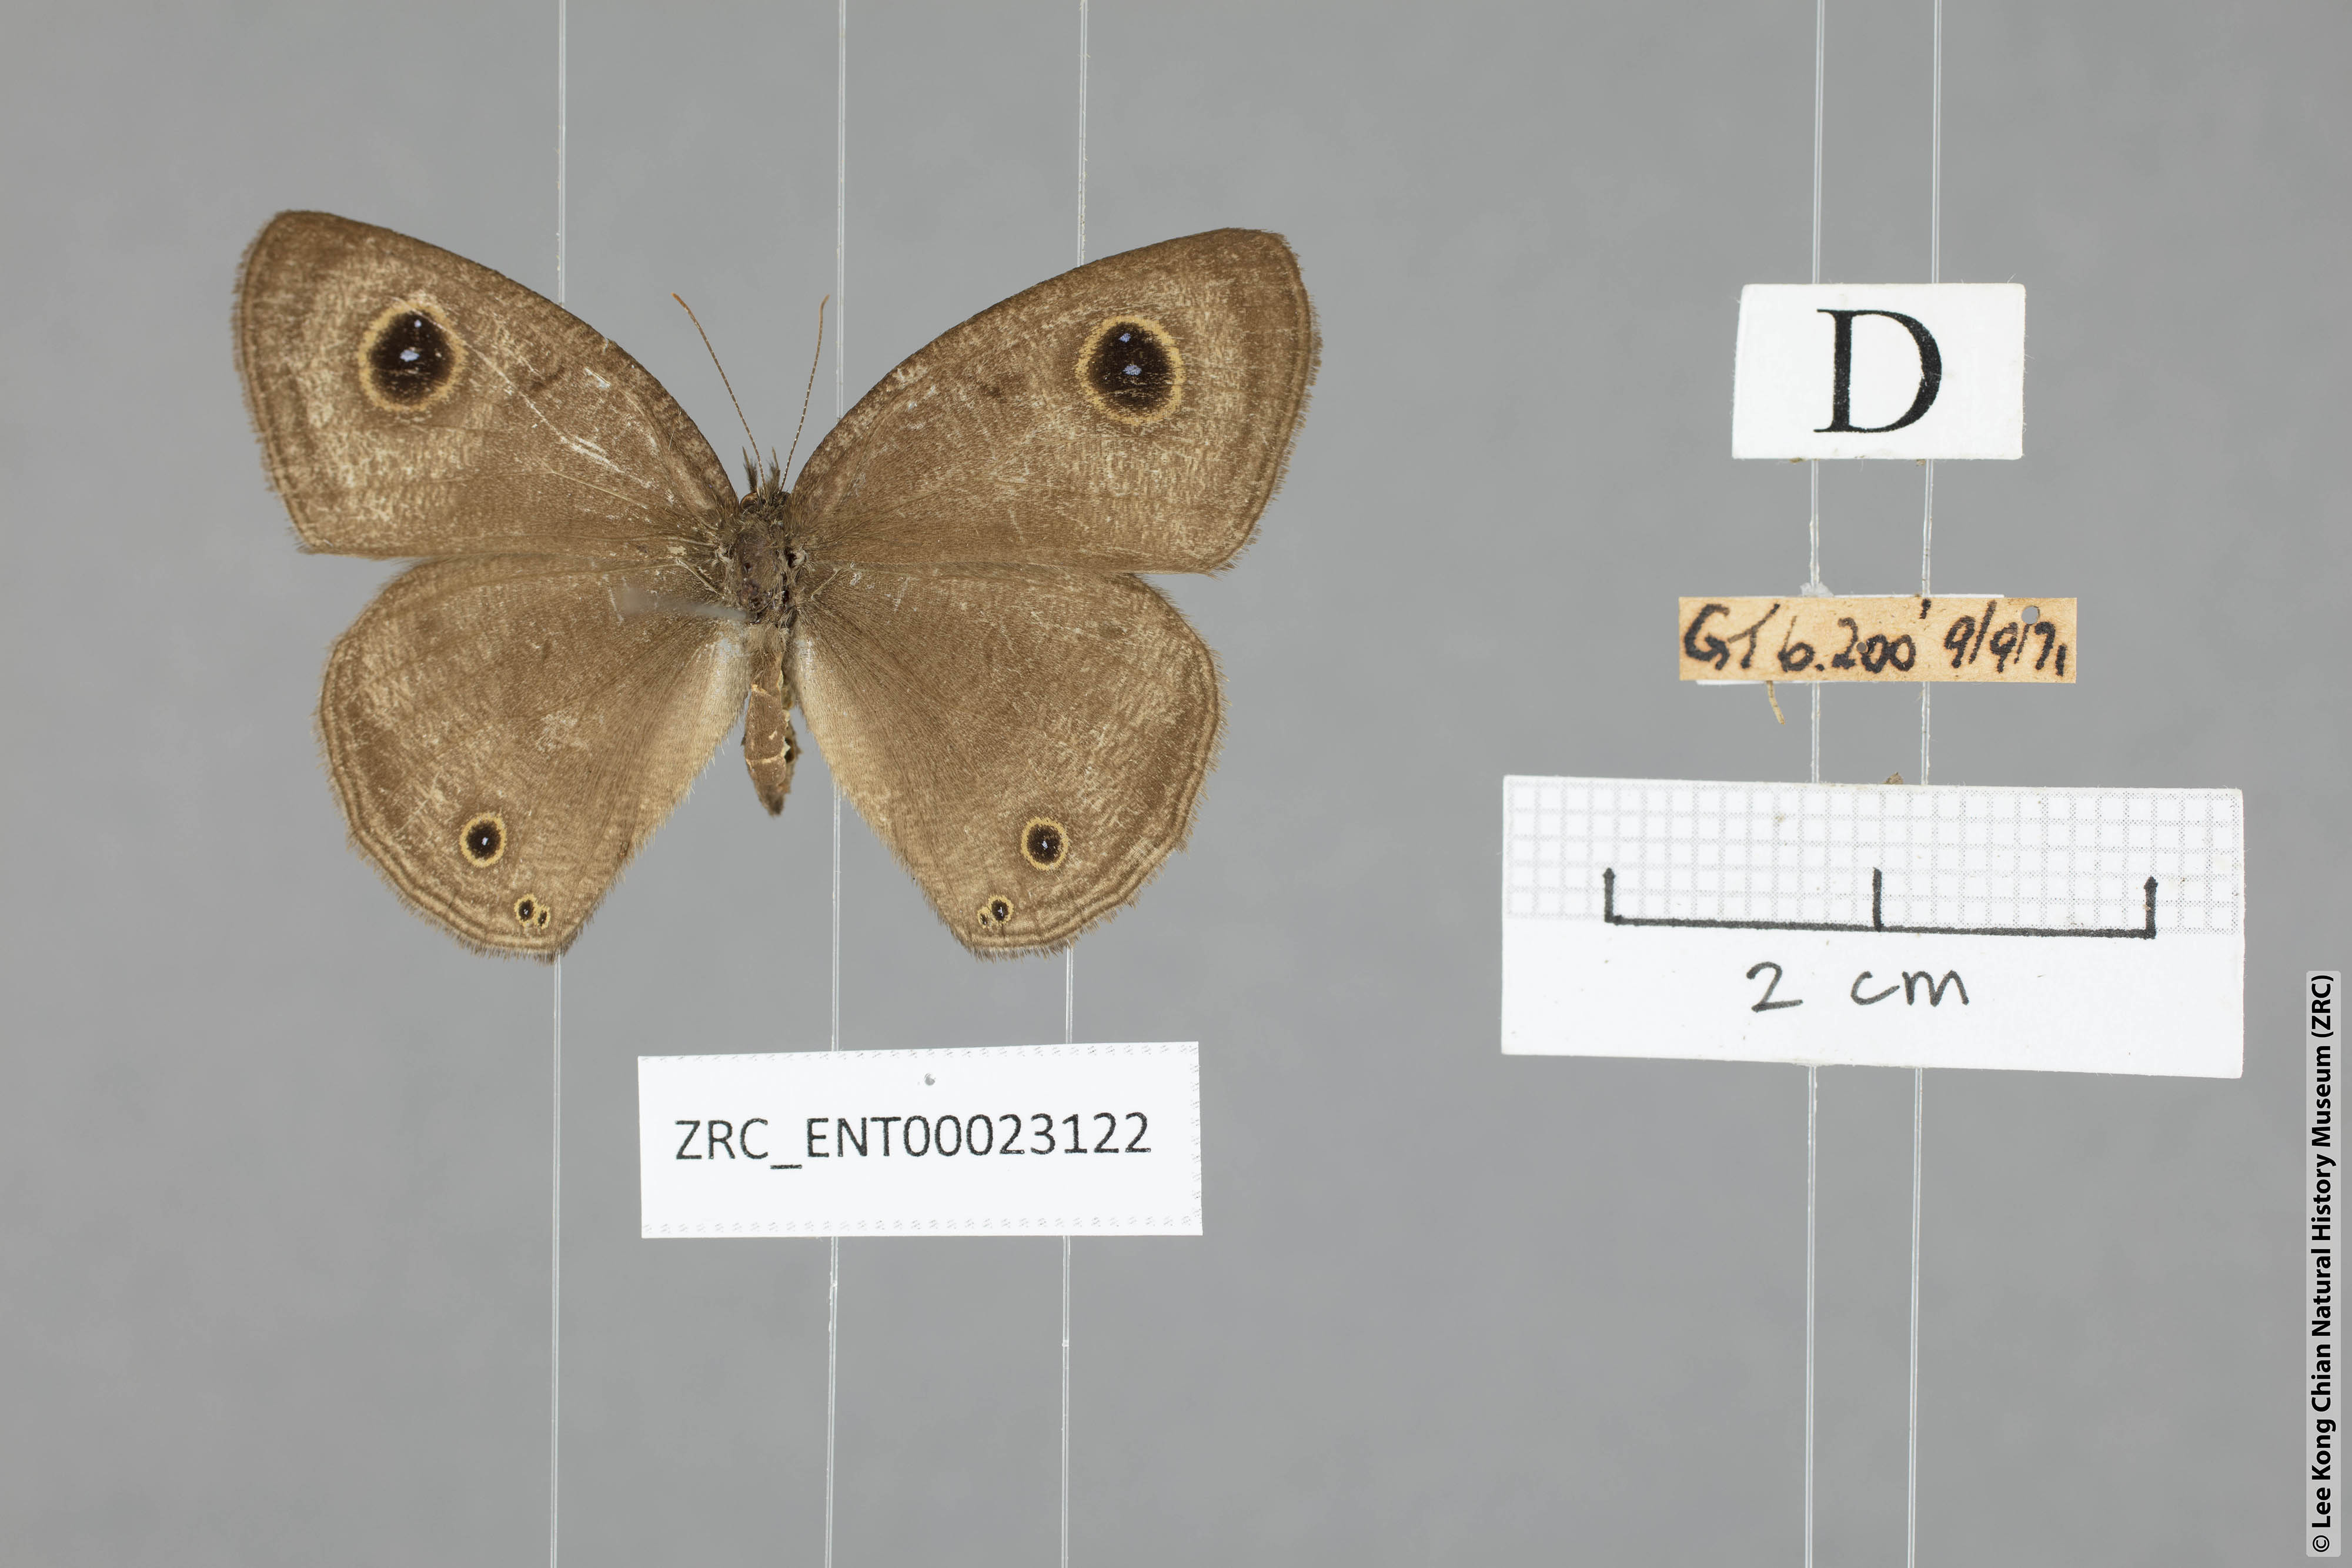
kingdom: Animalia
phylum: Arthropoda
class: Insecta
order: Lepidoptera
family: Nymphalidae
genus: Ypthima
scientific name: Ypthima pandocus
